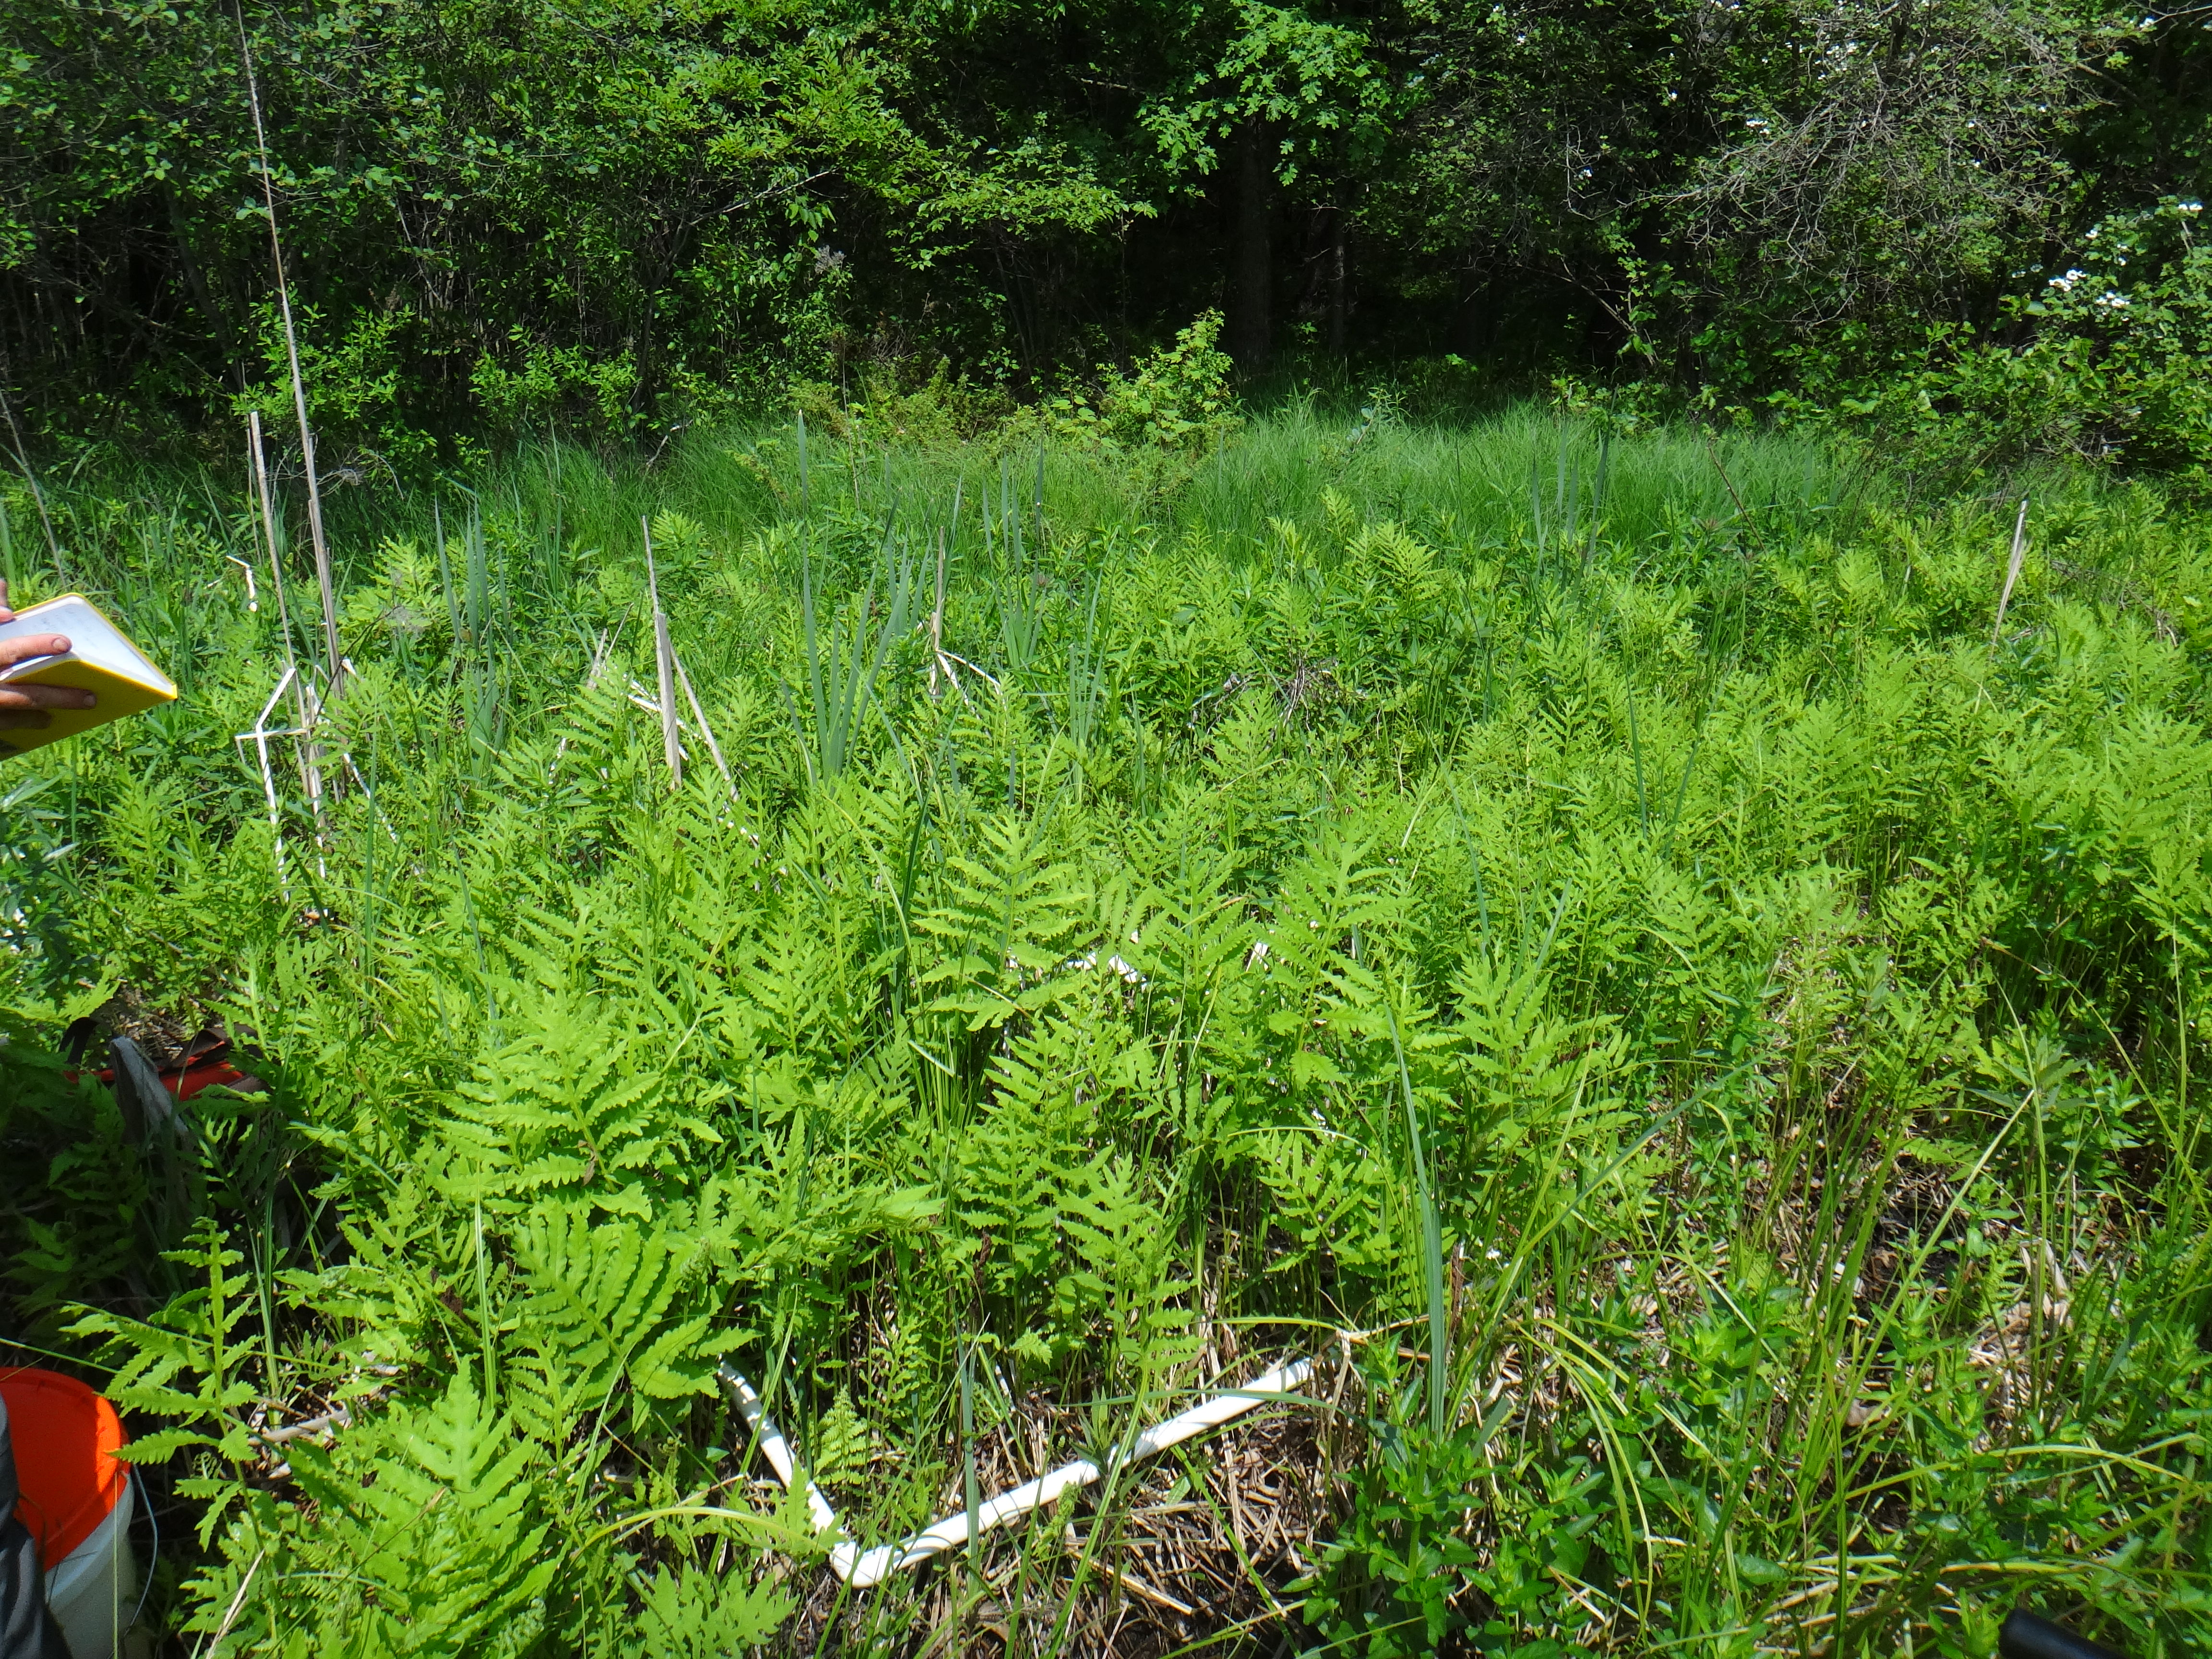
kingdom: Plantae
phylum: Tracheophyta
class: Polypodiopsida
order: Polypodiales
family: Onocleaceae
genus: Onoclea
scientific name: Onoclea sensibilis
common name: Sensitive fern
